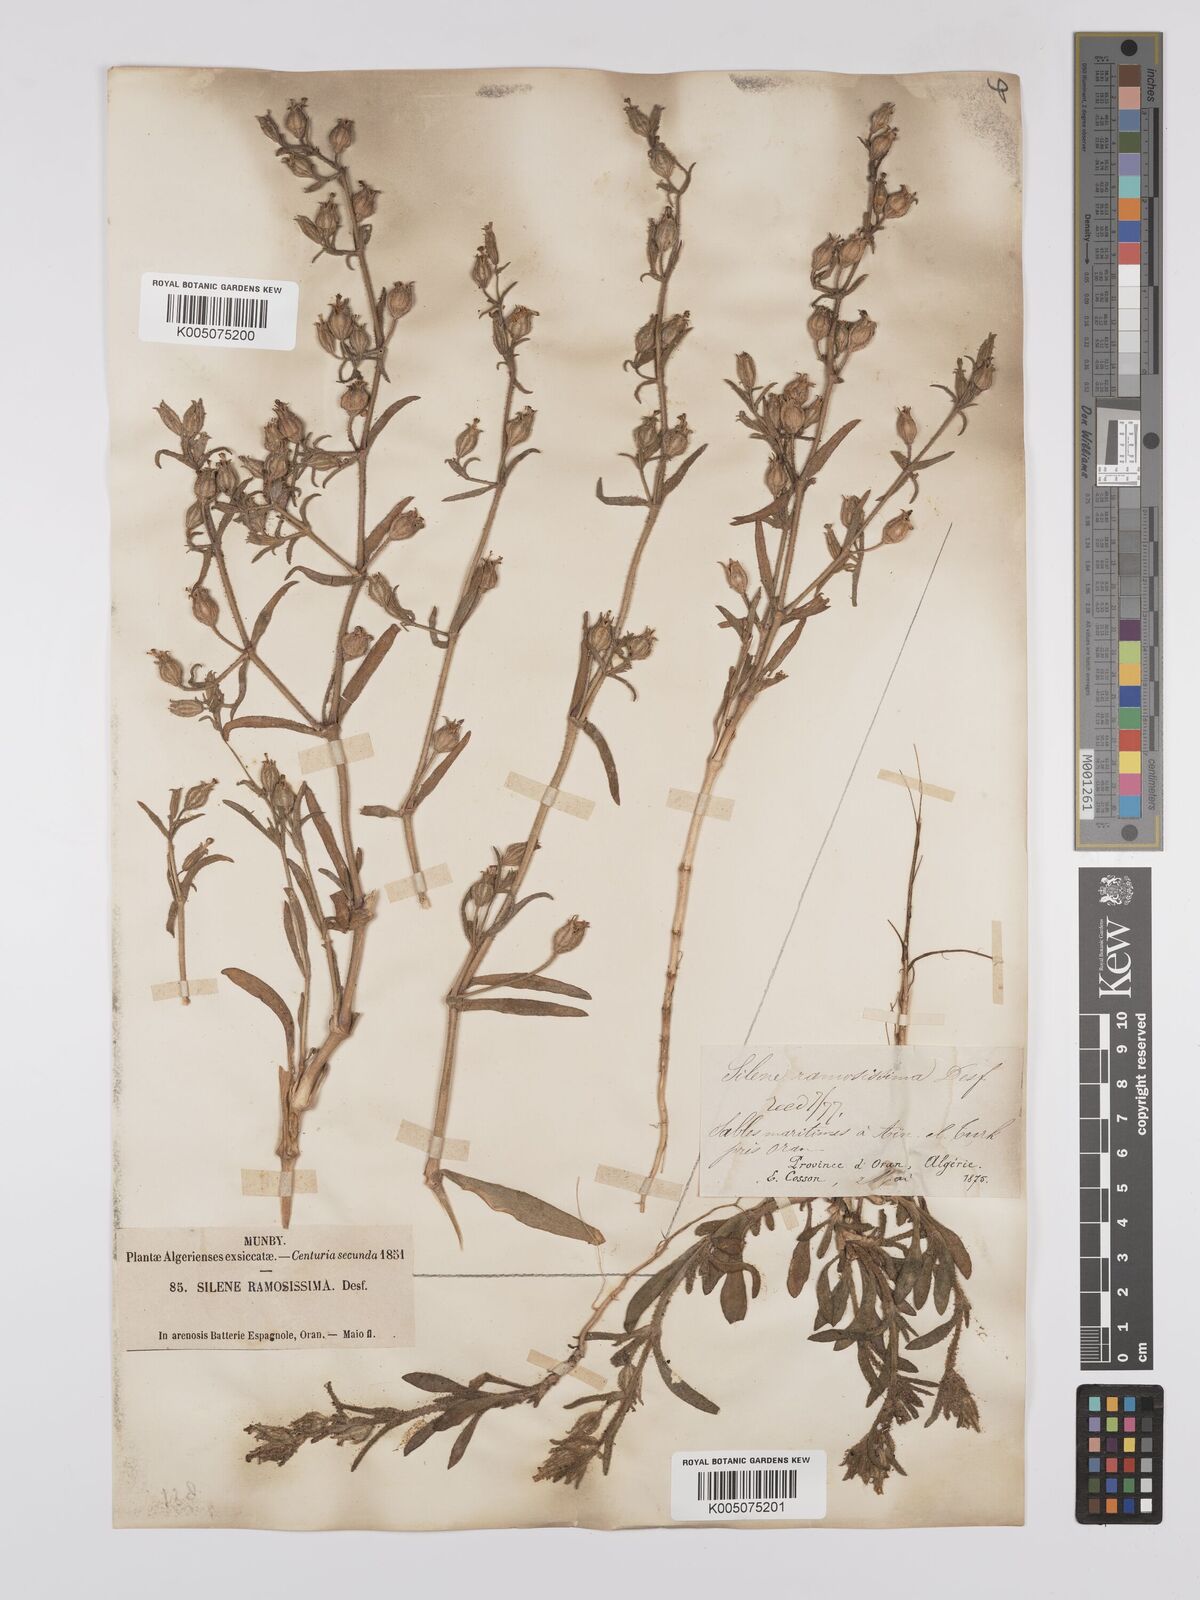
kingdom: Plantae
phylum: Tracheophyta
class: Magnoliopsida
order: Caryophyllales
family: Caryophyllaceae
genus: Silene
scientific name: Silene ramosissima
